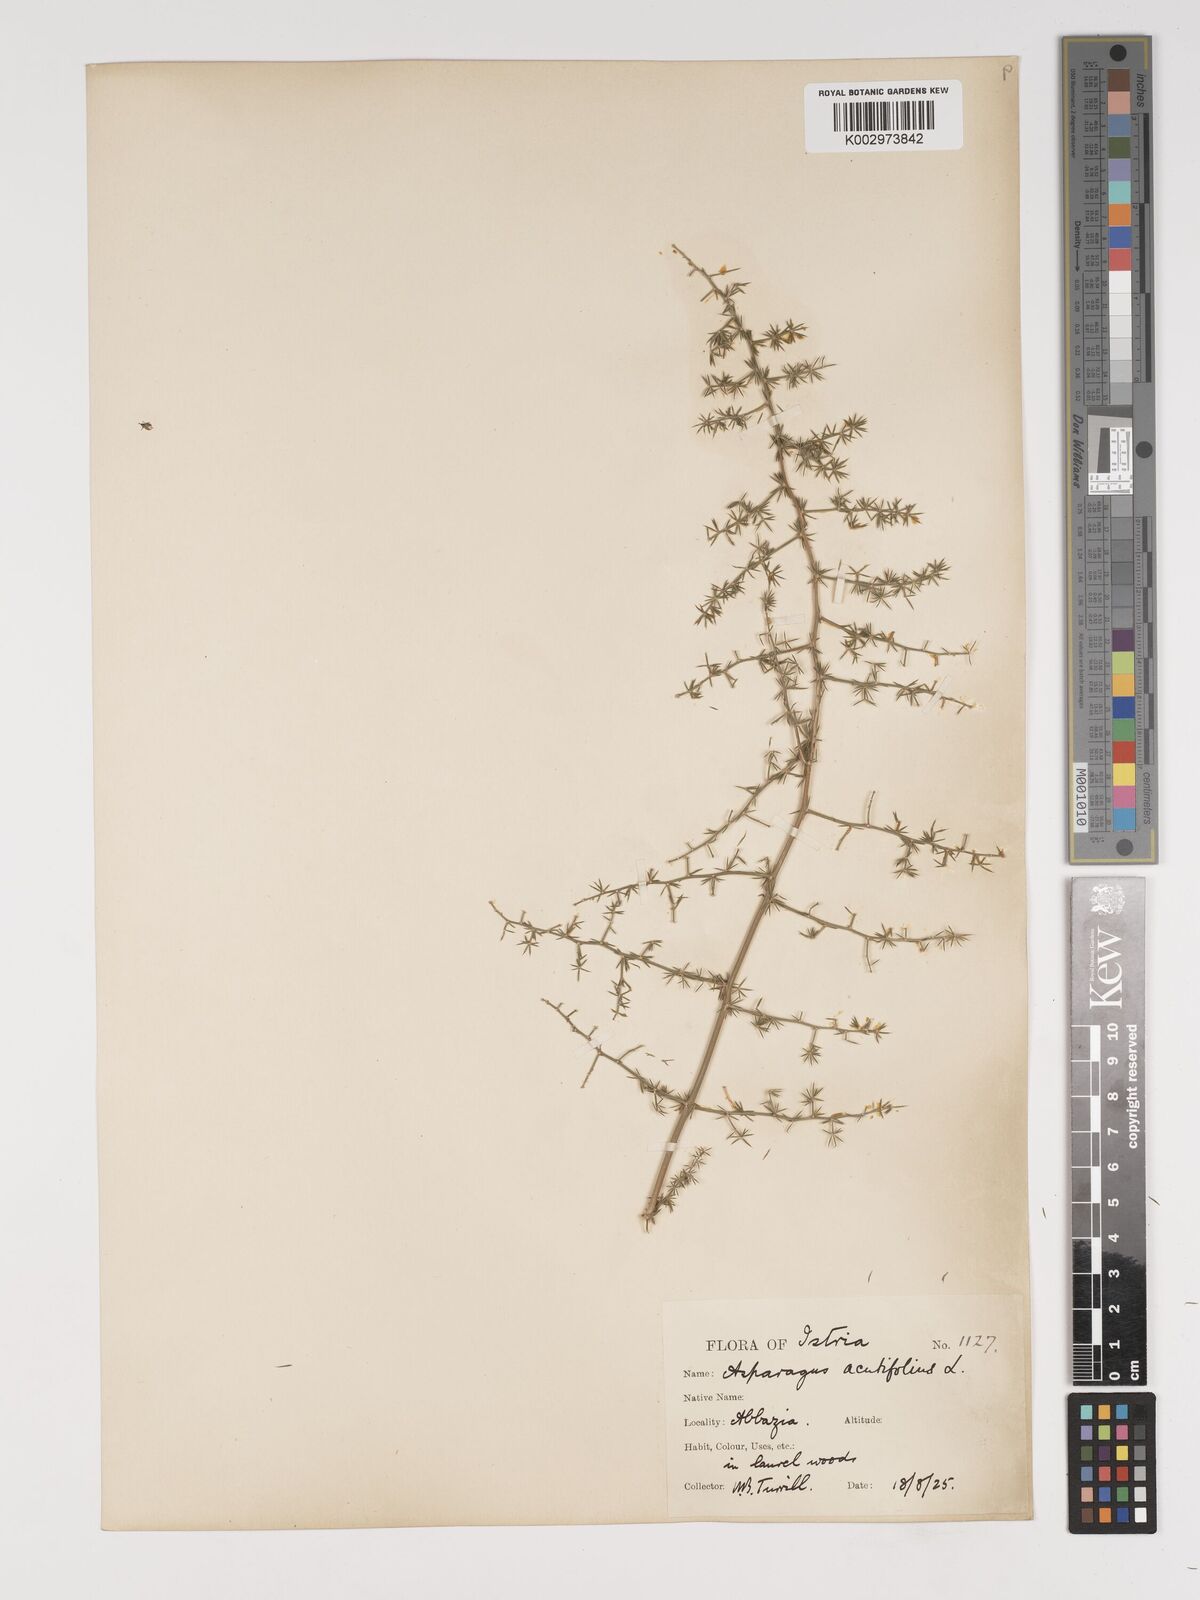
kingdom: Plantae
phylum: Tracheophyta
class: Liliopsida
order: Asparagales
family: Asparagaceae
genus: Asparagus
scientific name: Asparagus acutifolius
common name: Wild asparagus
